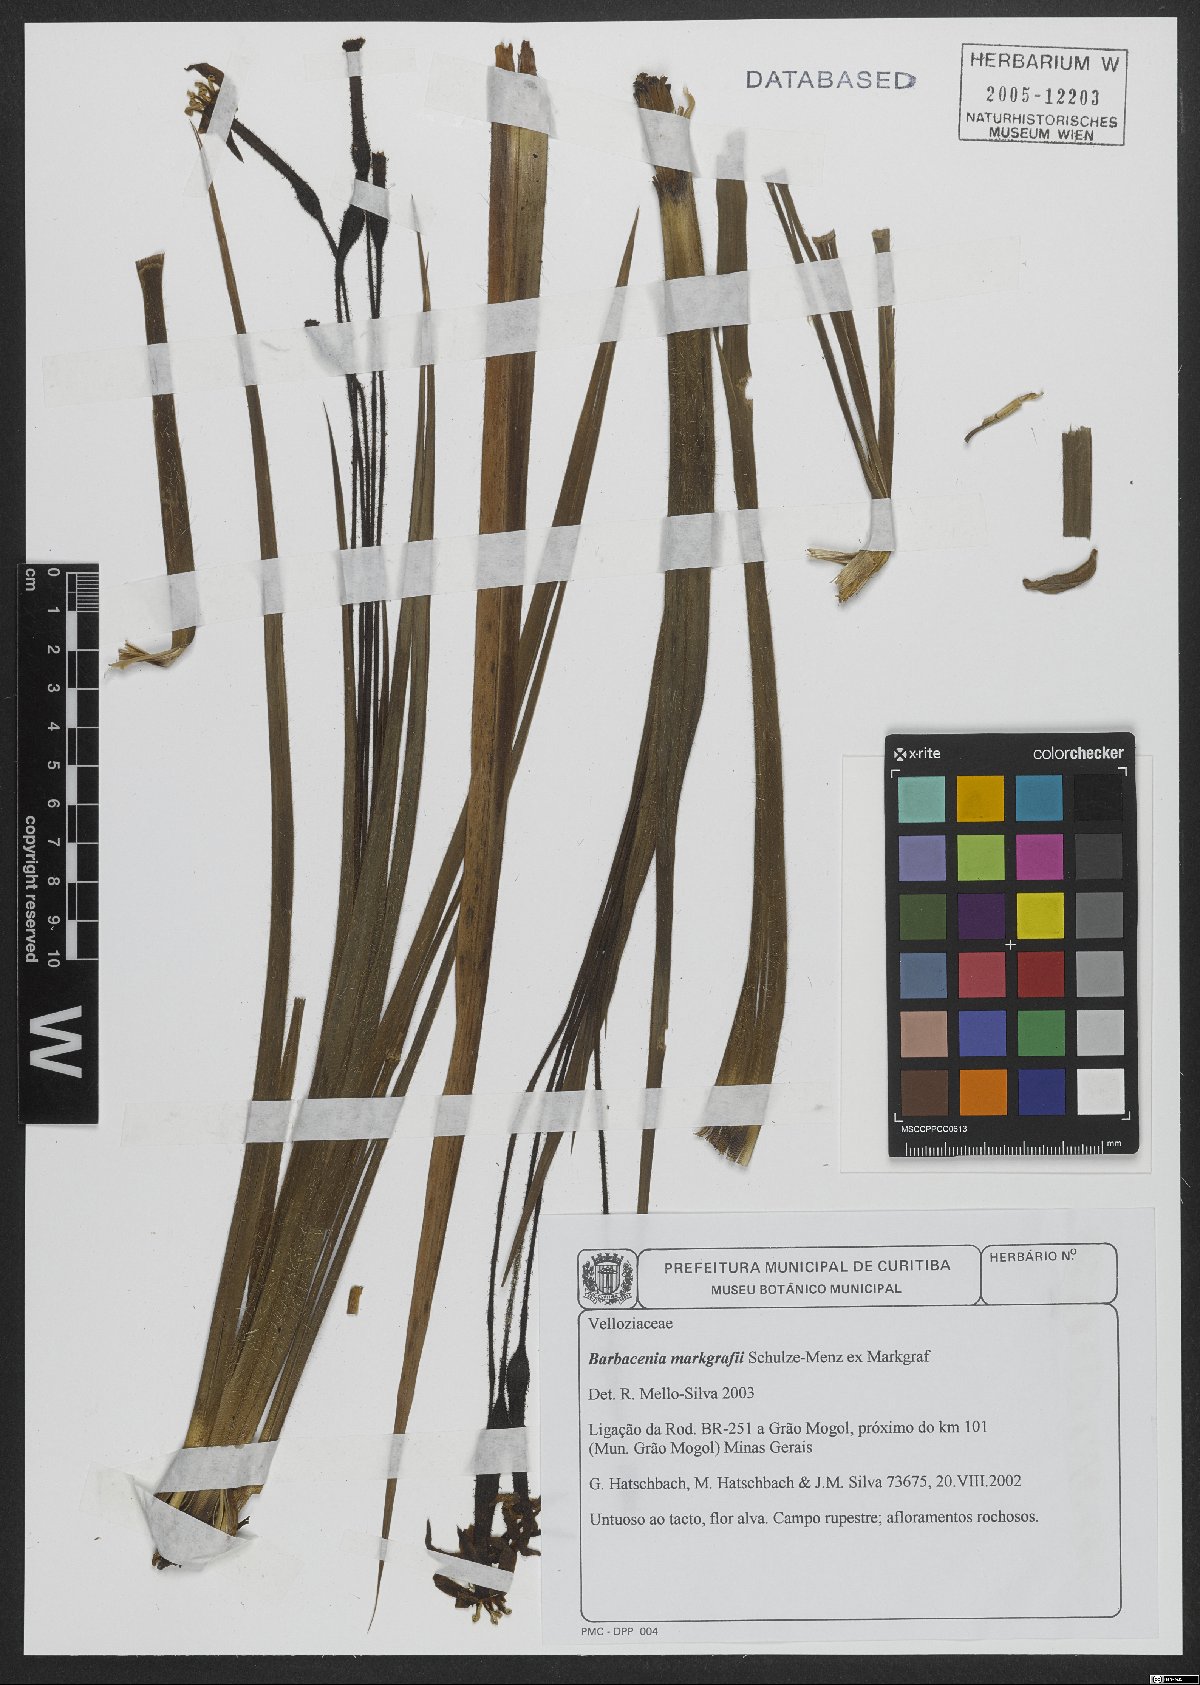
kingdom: Plantae
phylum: Tracheophyta
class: Liliopsida
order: Pandanales
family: Velloziaceae
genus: Barbacenia
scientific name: Barbacenia markgrafii
